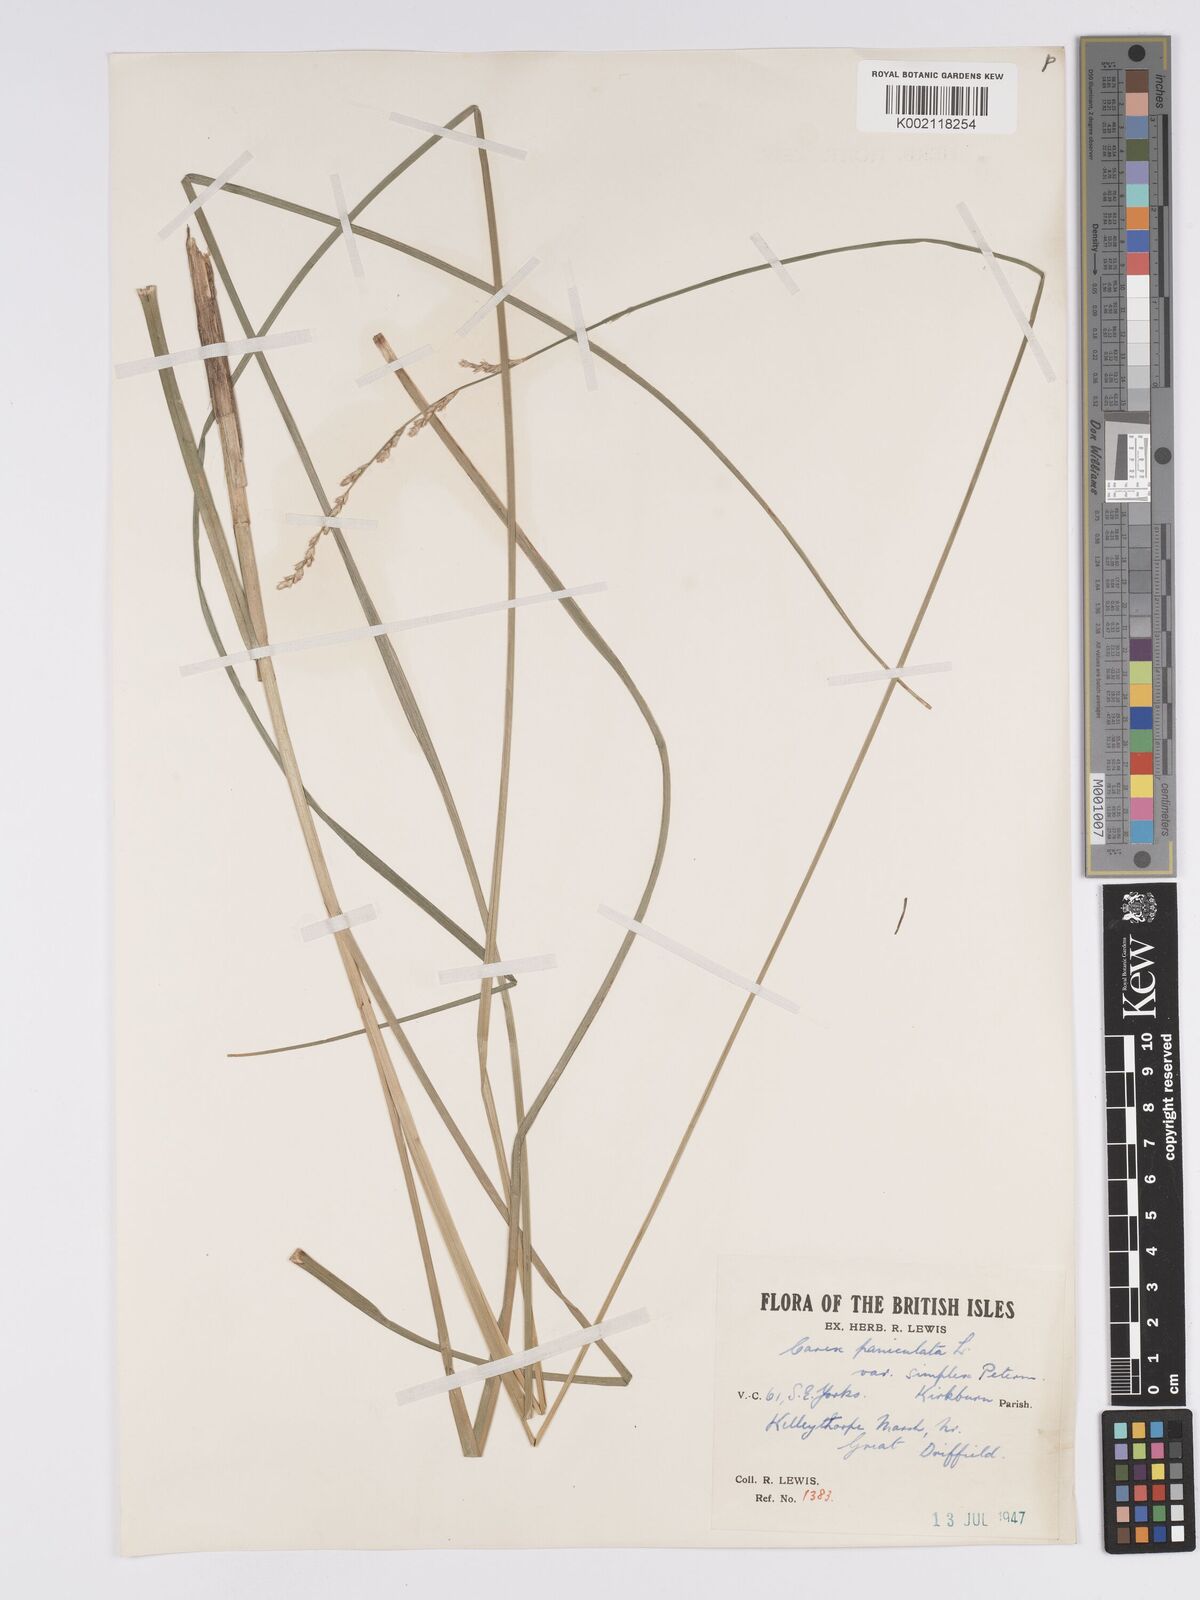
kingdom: Plantae
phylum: Tracheophyta
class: Liliopsida
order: Poales
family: Cyperaceae
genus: Carex
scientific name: Carex paniculata
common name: Greater tussock-sedge
